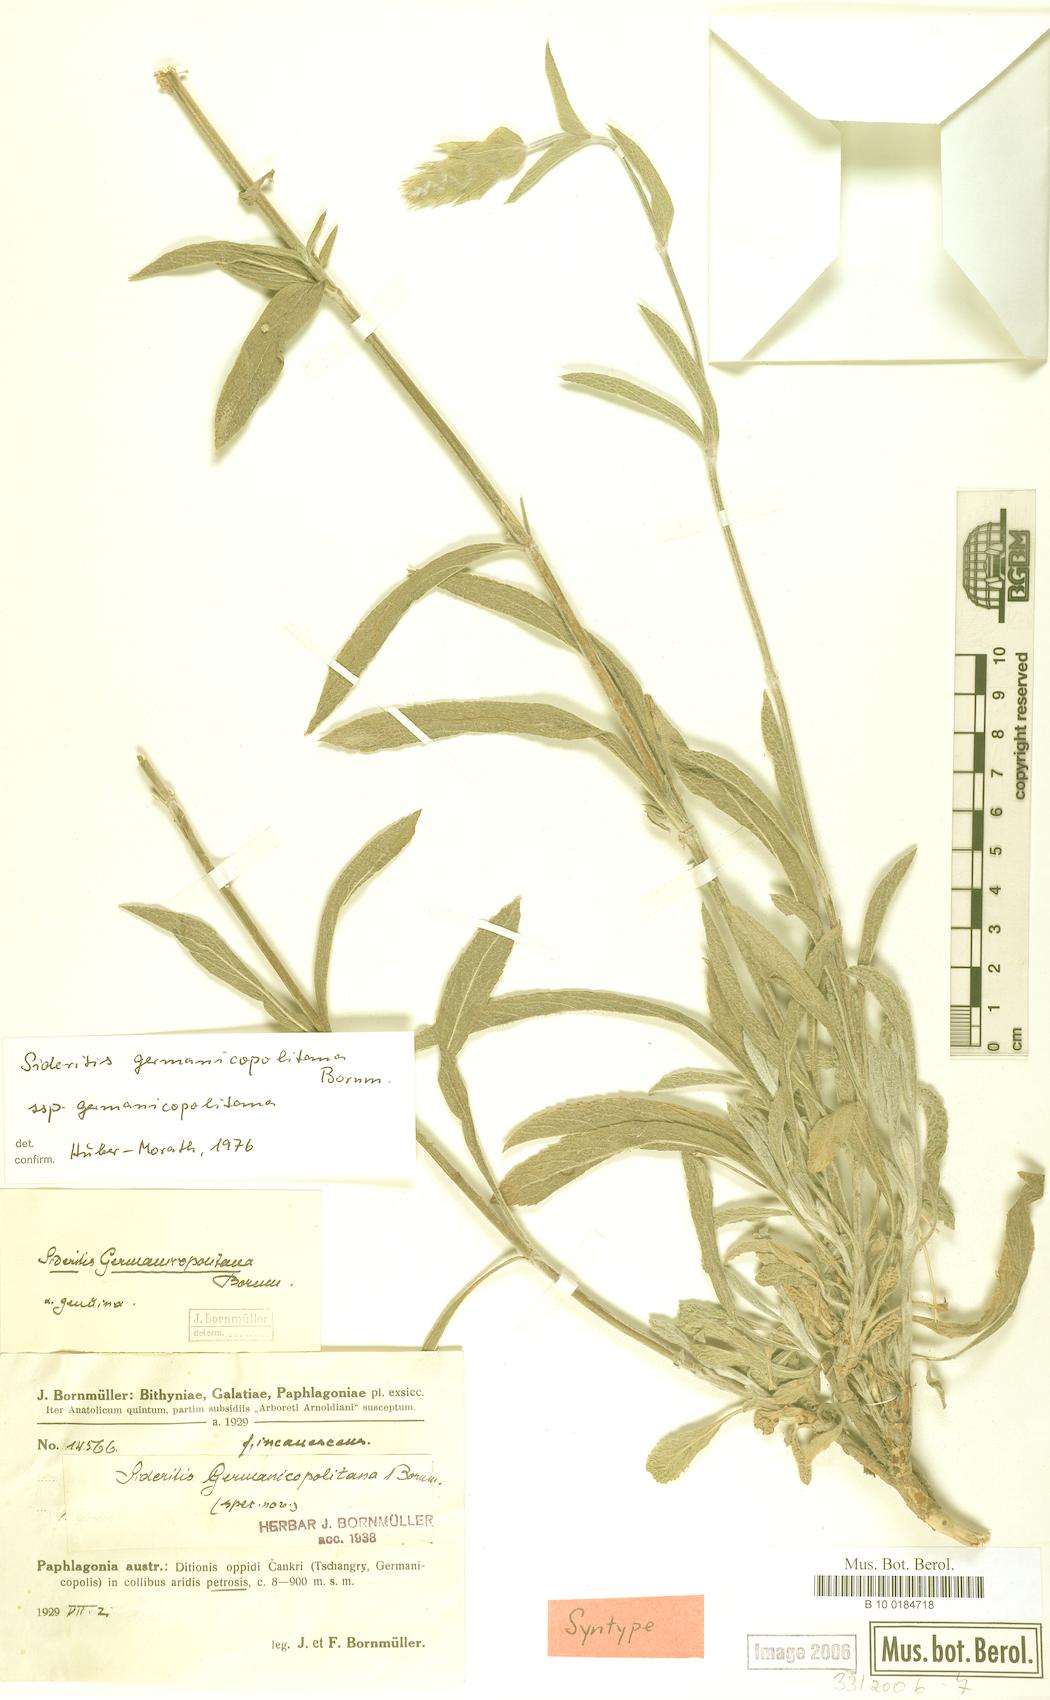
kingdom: Plantae
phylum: Tracheophyta
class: Magnoliopsida
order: Lamiales
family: Lamiaceae
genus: Sideritis
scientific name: Sideritis germanicopolitana
